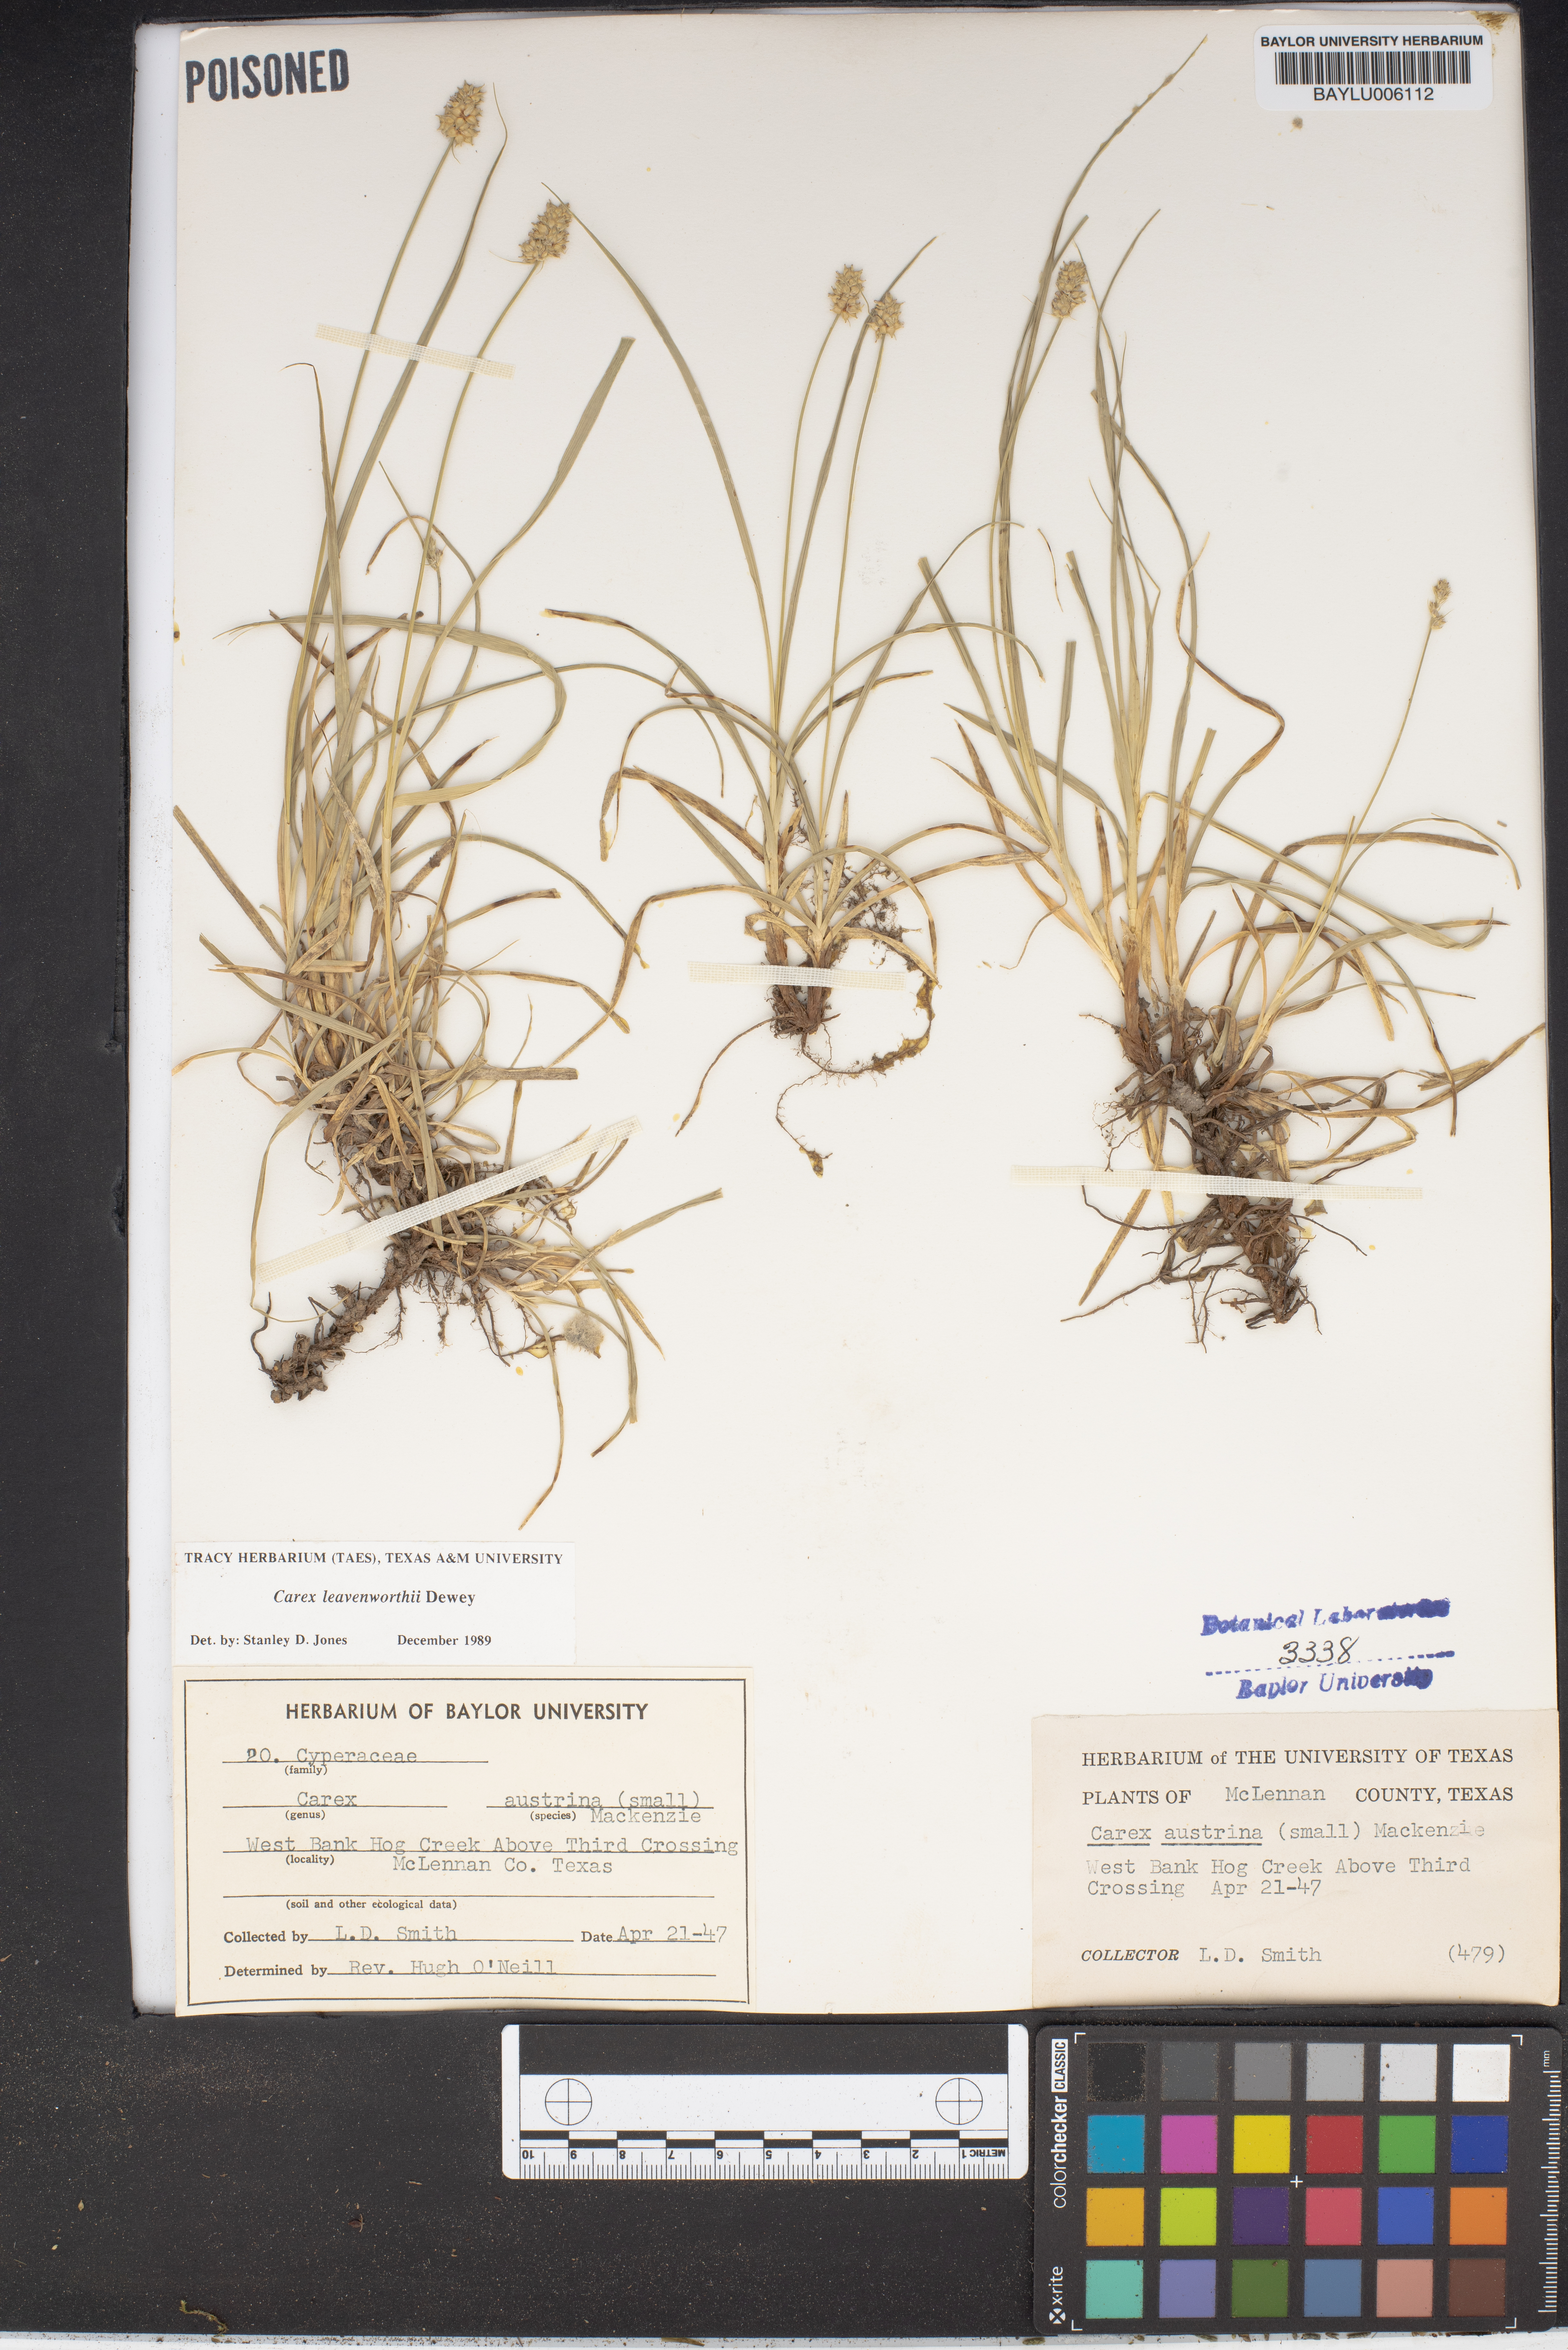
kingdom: Plantae
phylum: Tracheophyta
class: Liliopsida
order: Poales
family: Cyperaceae
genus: Carex
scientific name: Carex austrina
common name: Southern sedge
